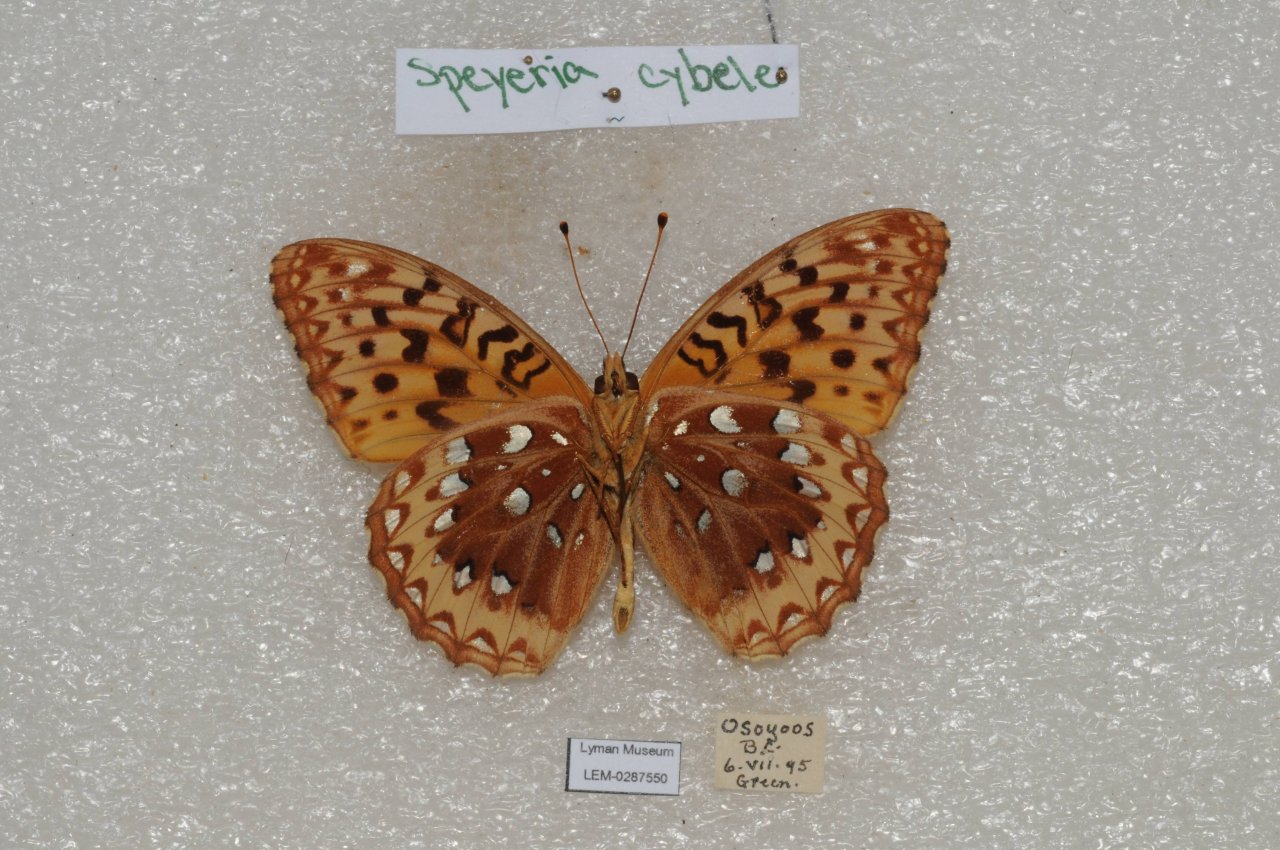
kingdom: Animalia
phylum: Arthropoda
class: Insecta
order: Lepidoptera
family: Nymphalidae
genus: Speyeria
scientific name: Speyeria cybele
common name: Great Spangled Fritillary
